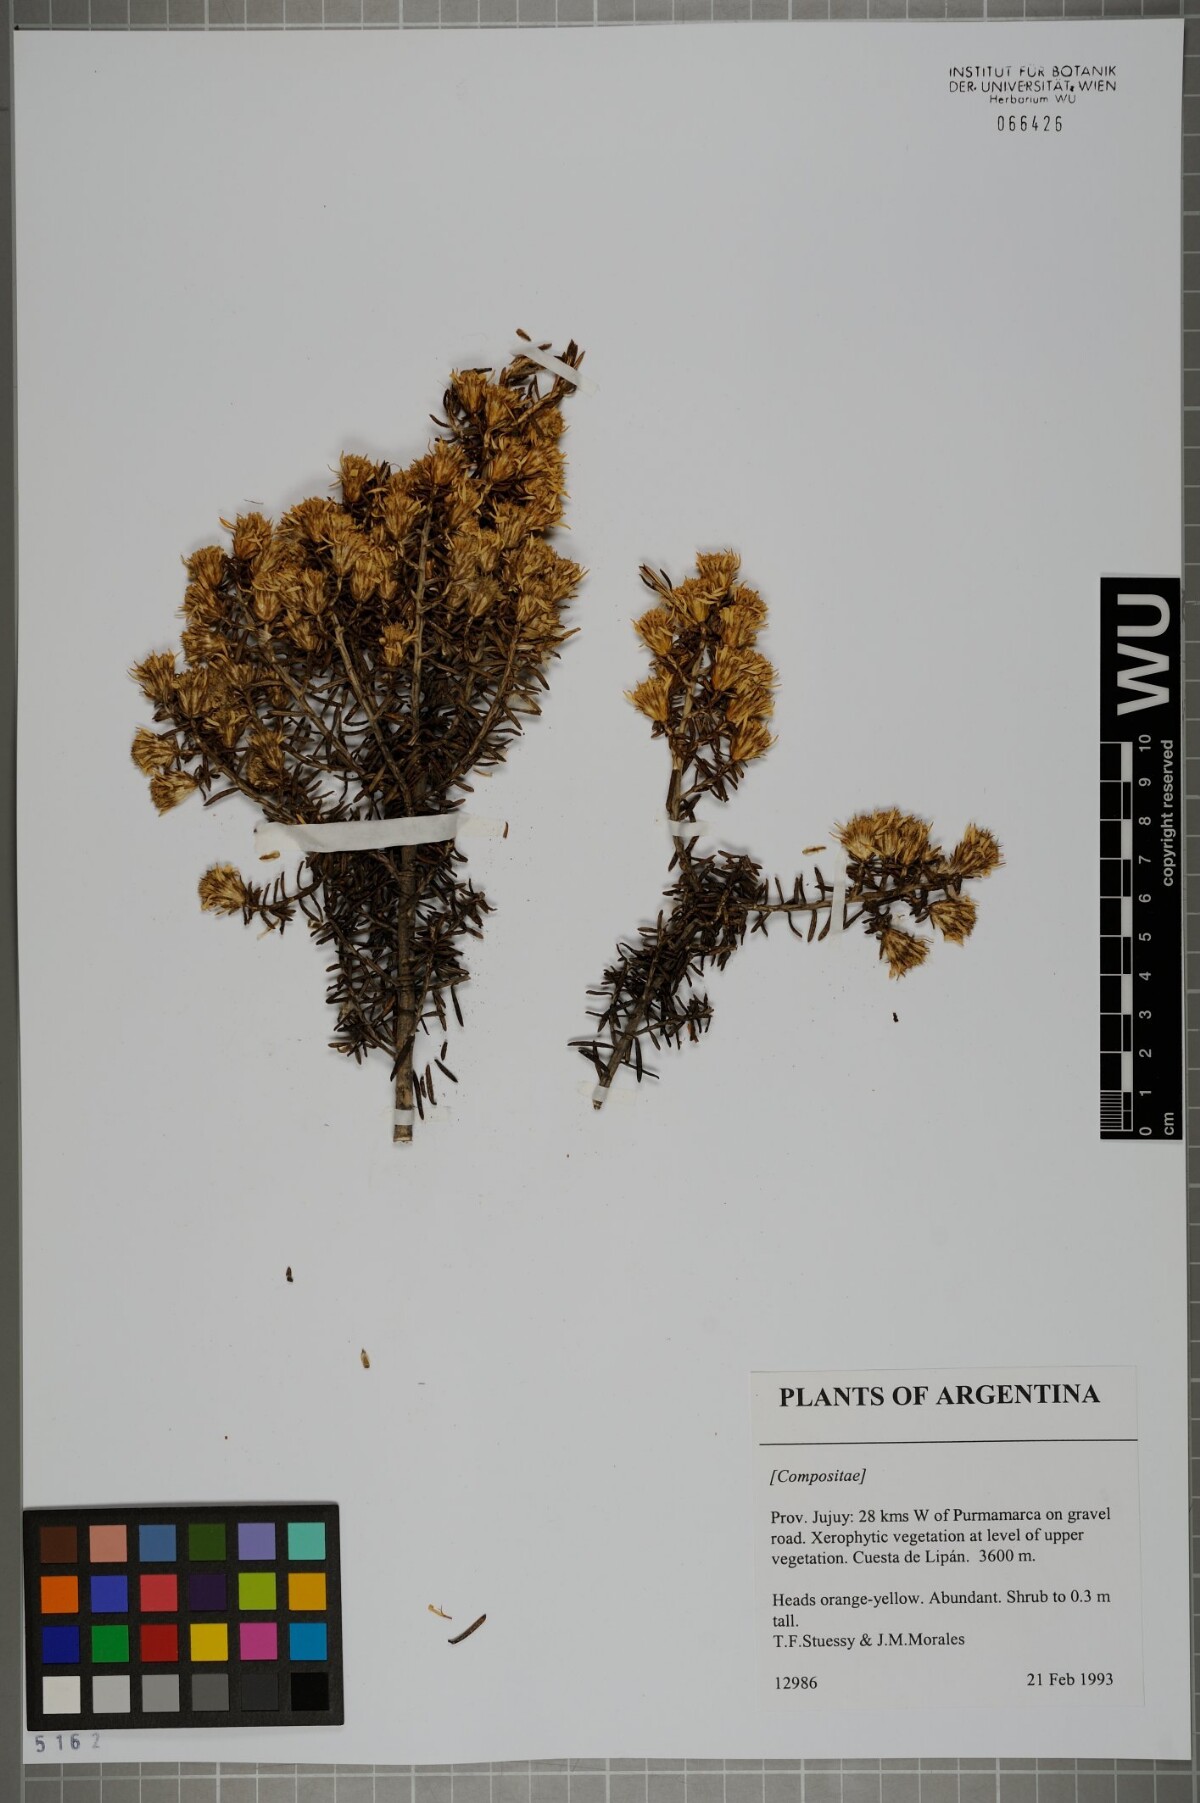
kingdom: Plantae
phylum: Tracheophyta
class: Magnoliopsida
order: Asterales
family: Asteraceae
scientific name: Asteraceae
